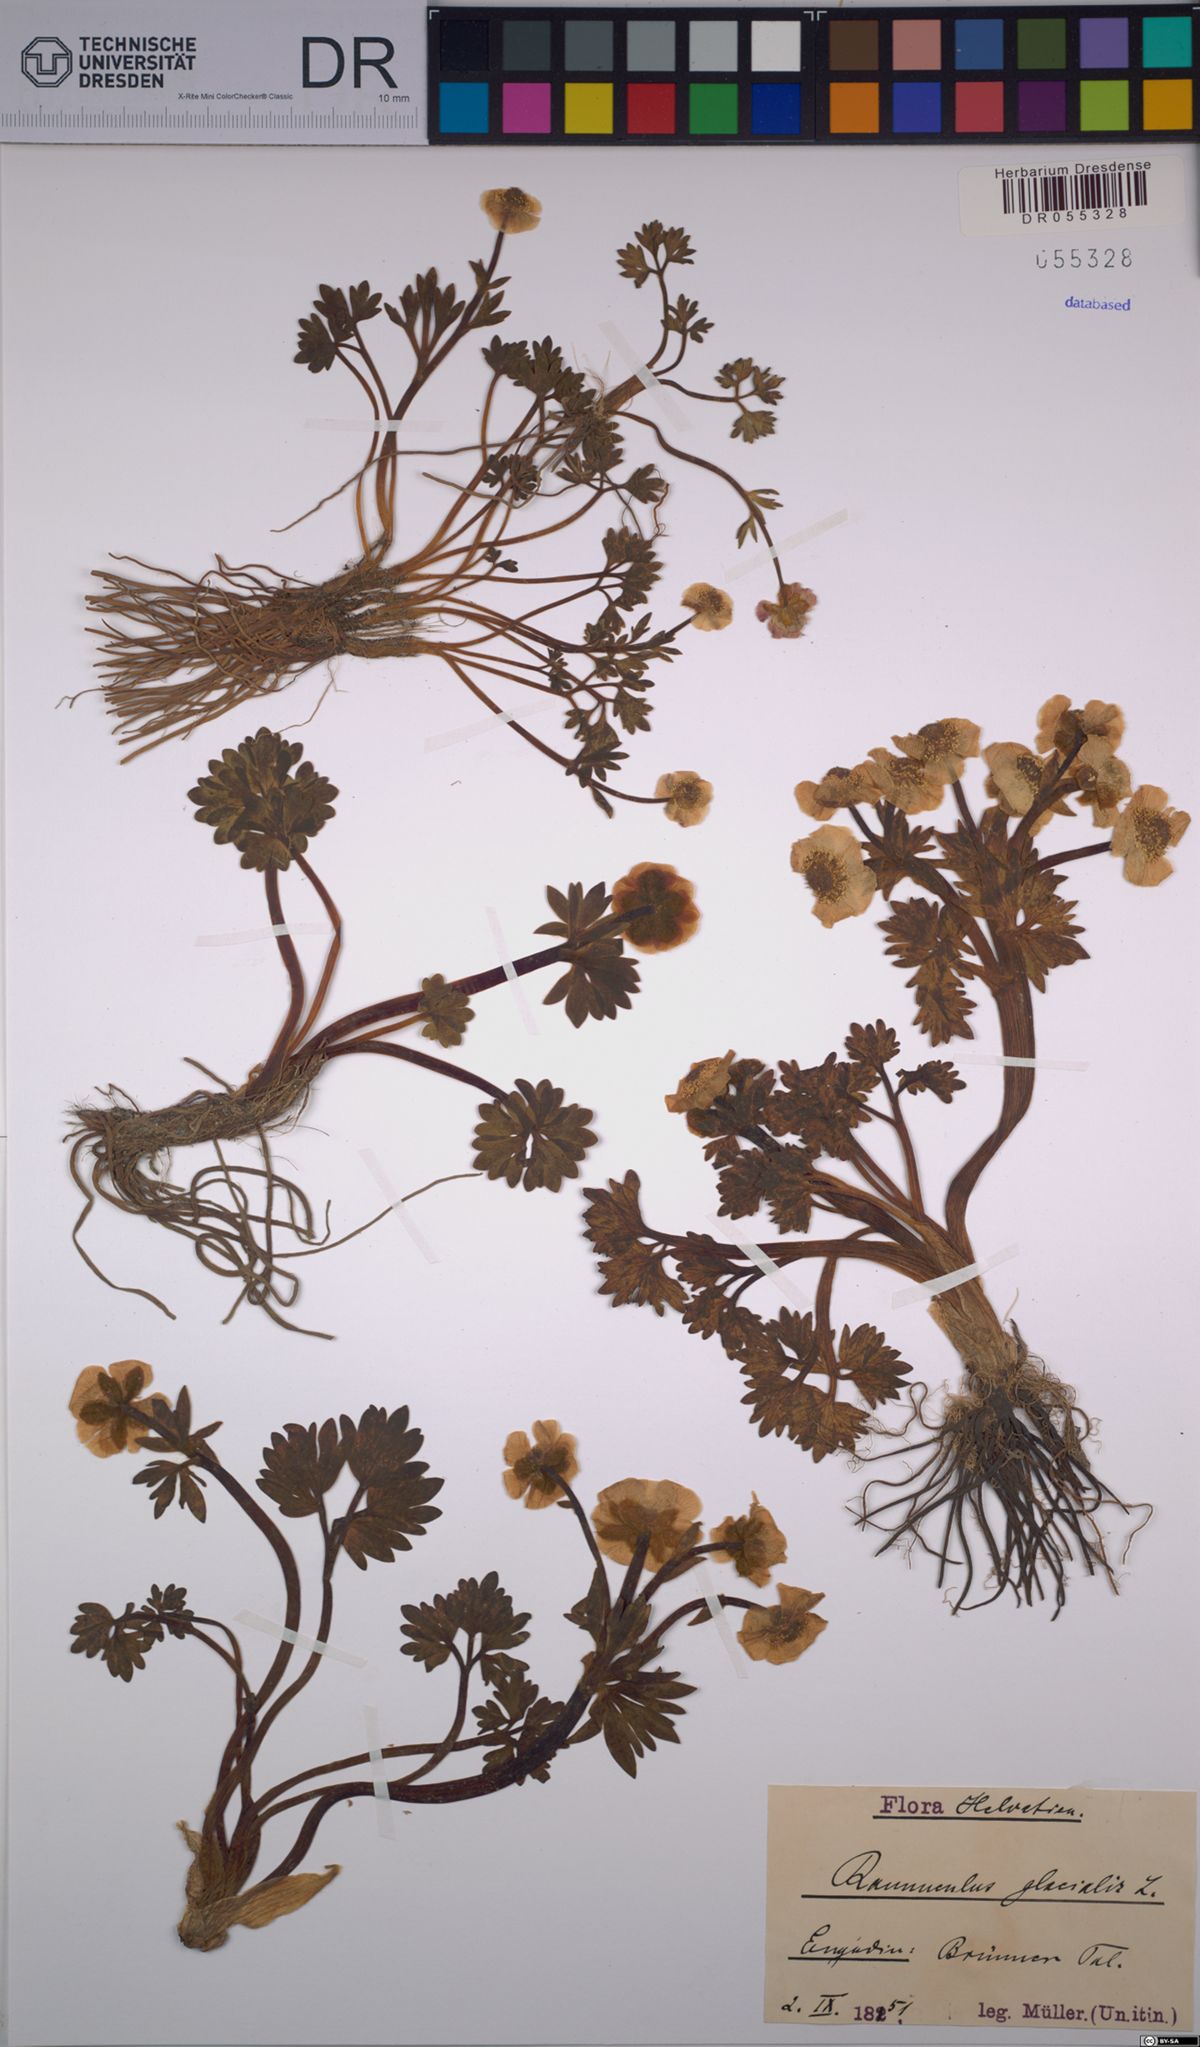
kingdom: Plantae
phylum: Tracheophyta
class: Magnoliopsida
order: Ranunculales
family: Ranunculaceae
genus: Ranunculus
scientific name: Ranunculus glacialis
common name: Glacier buttercup
